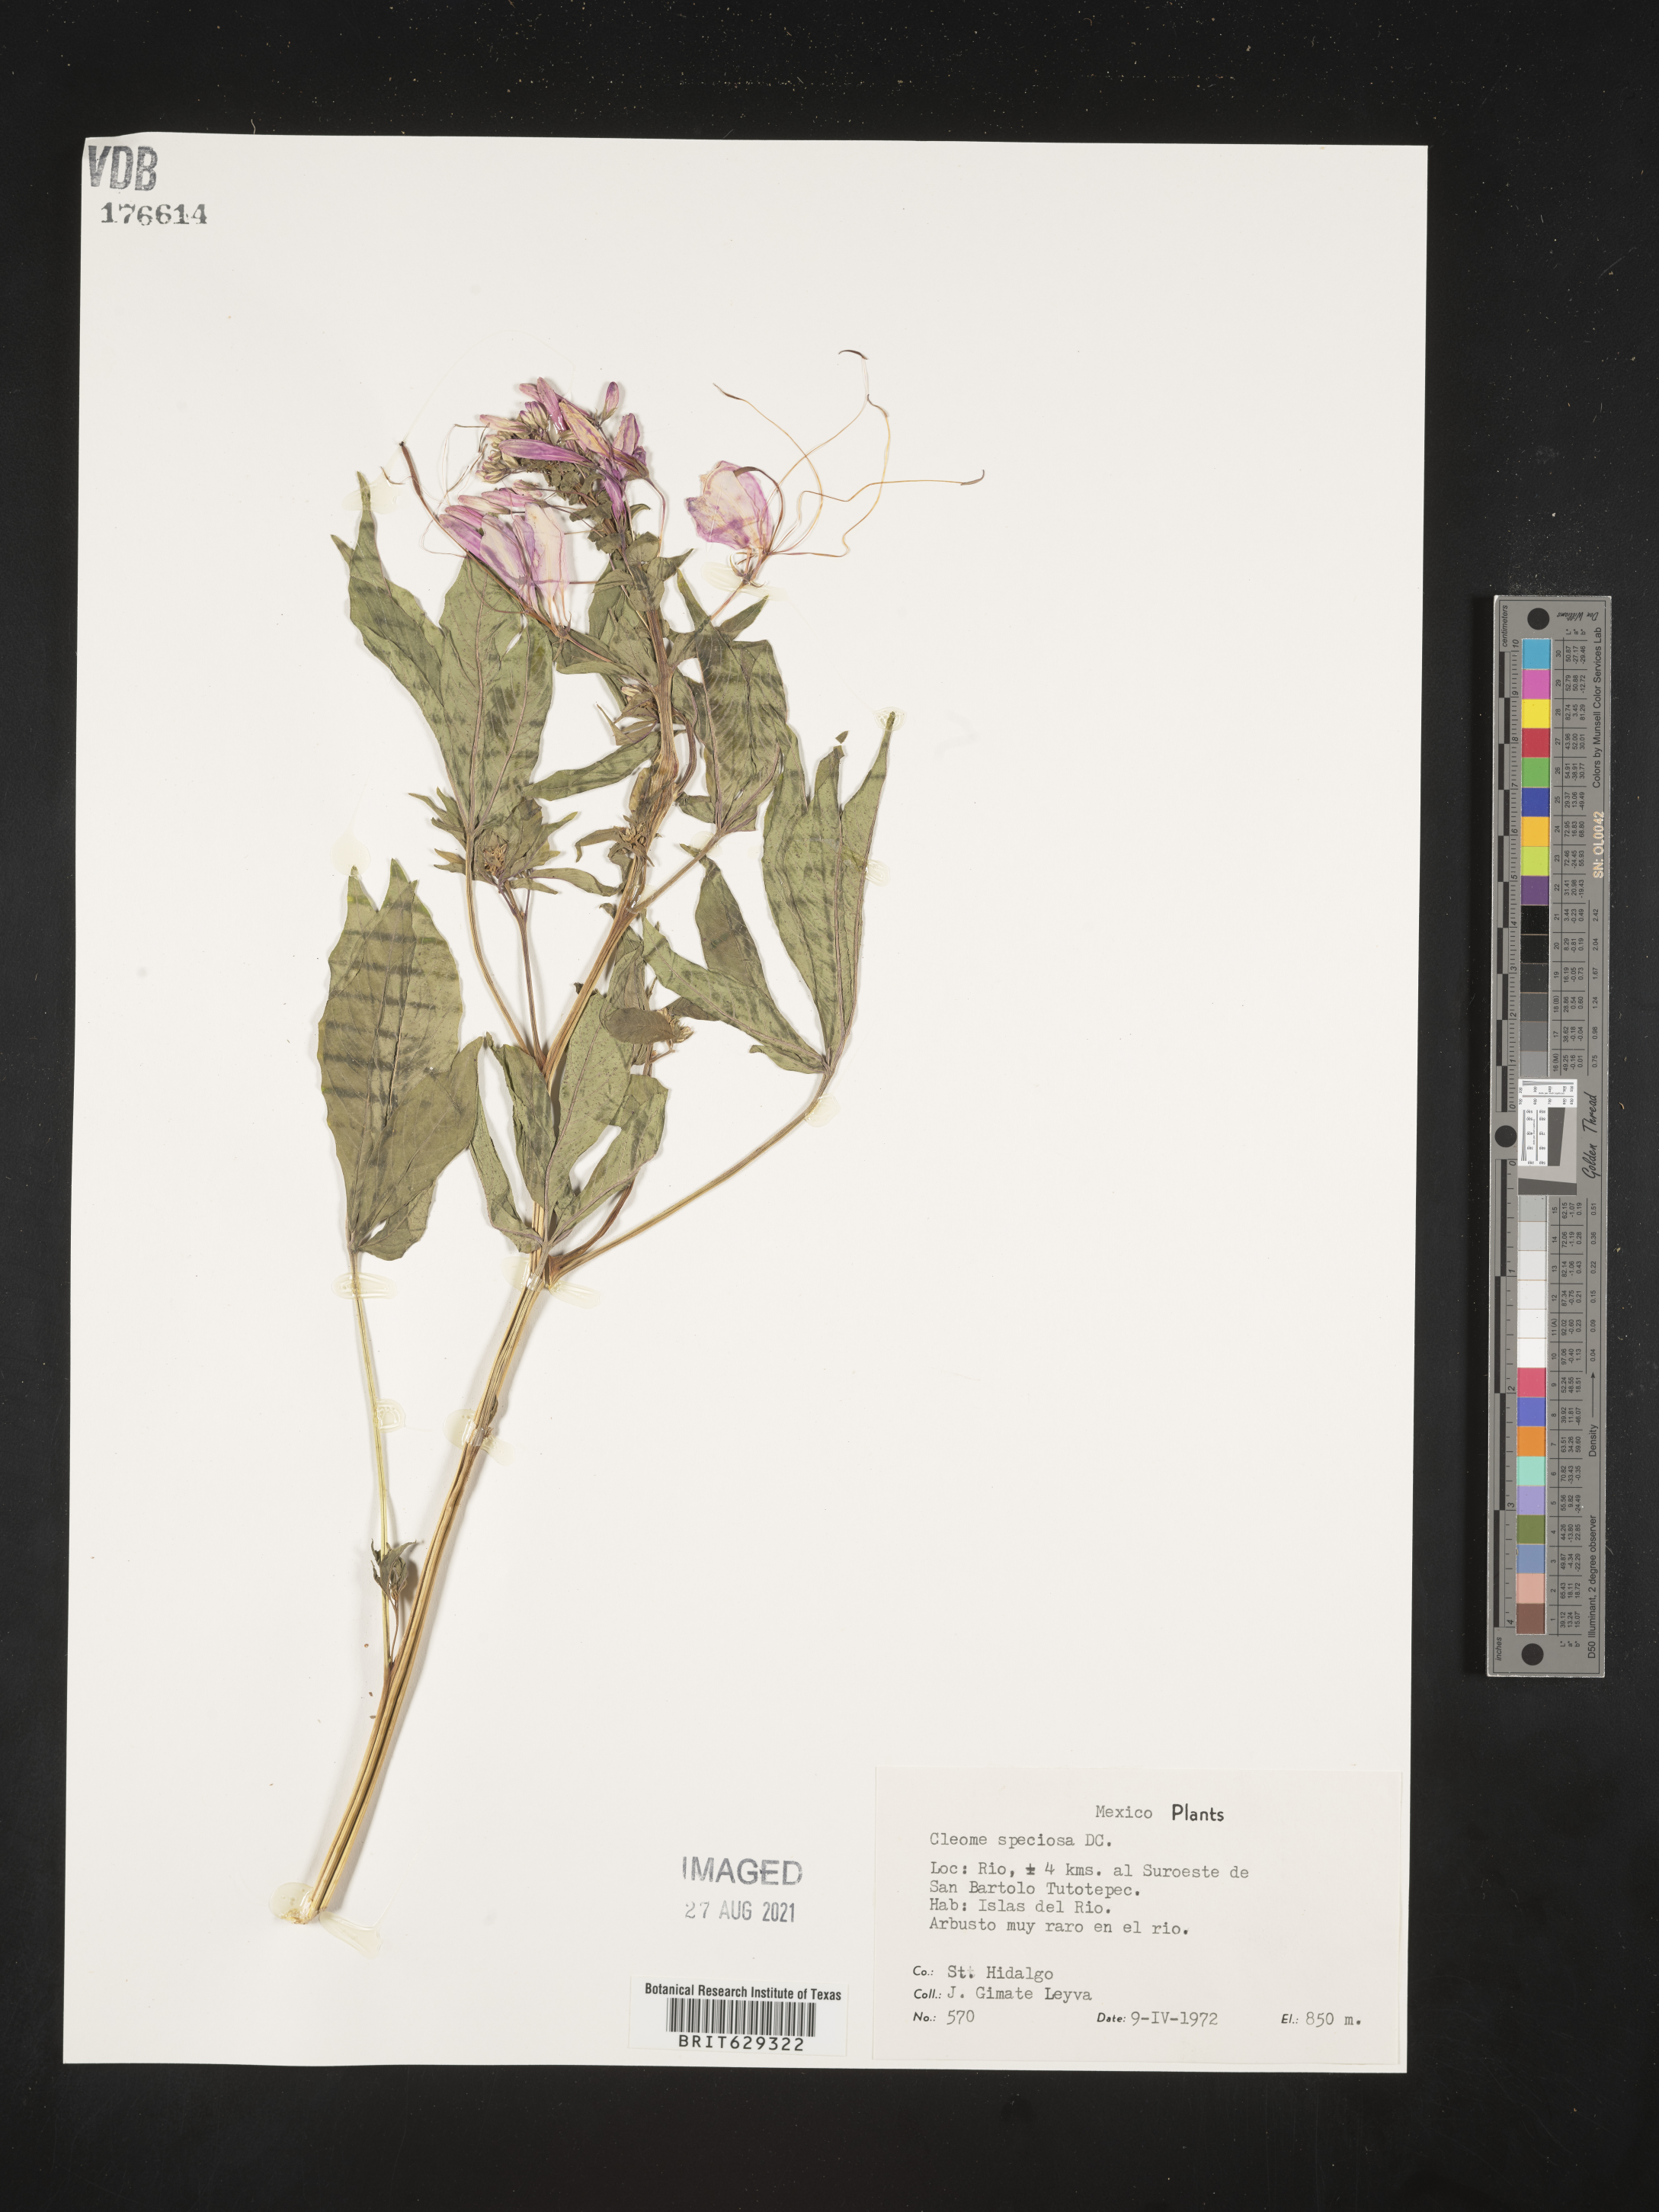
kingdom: Plantae
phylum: Tracheophyta
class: Magnoliopsida
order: Brassicales
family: Cleomaceae
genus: Cleome
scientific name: Cleome
